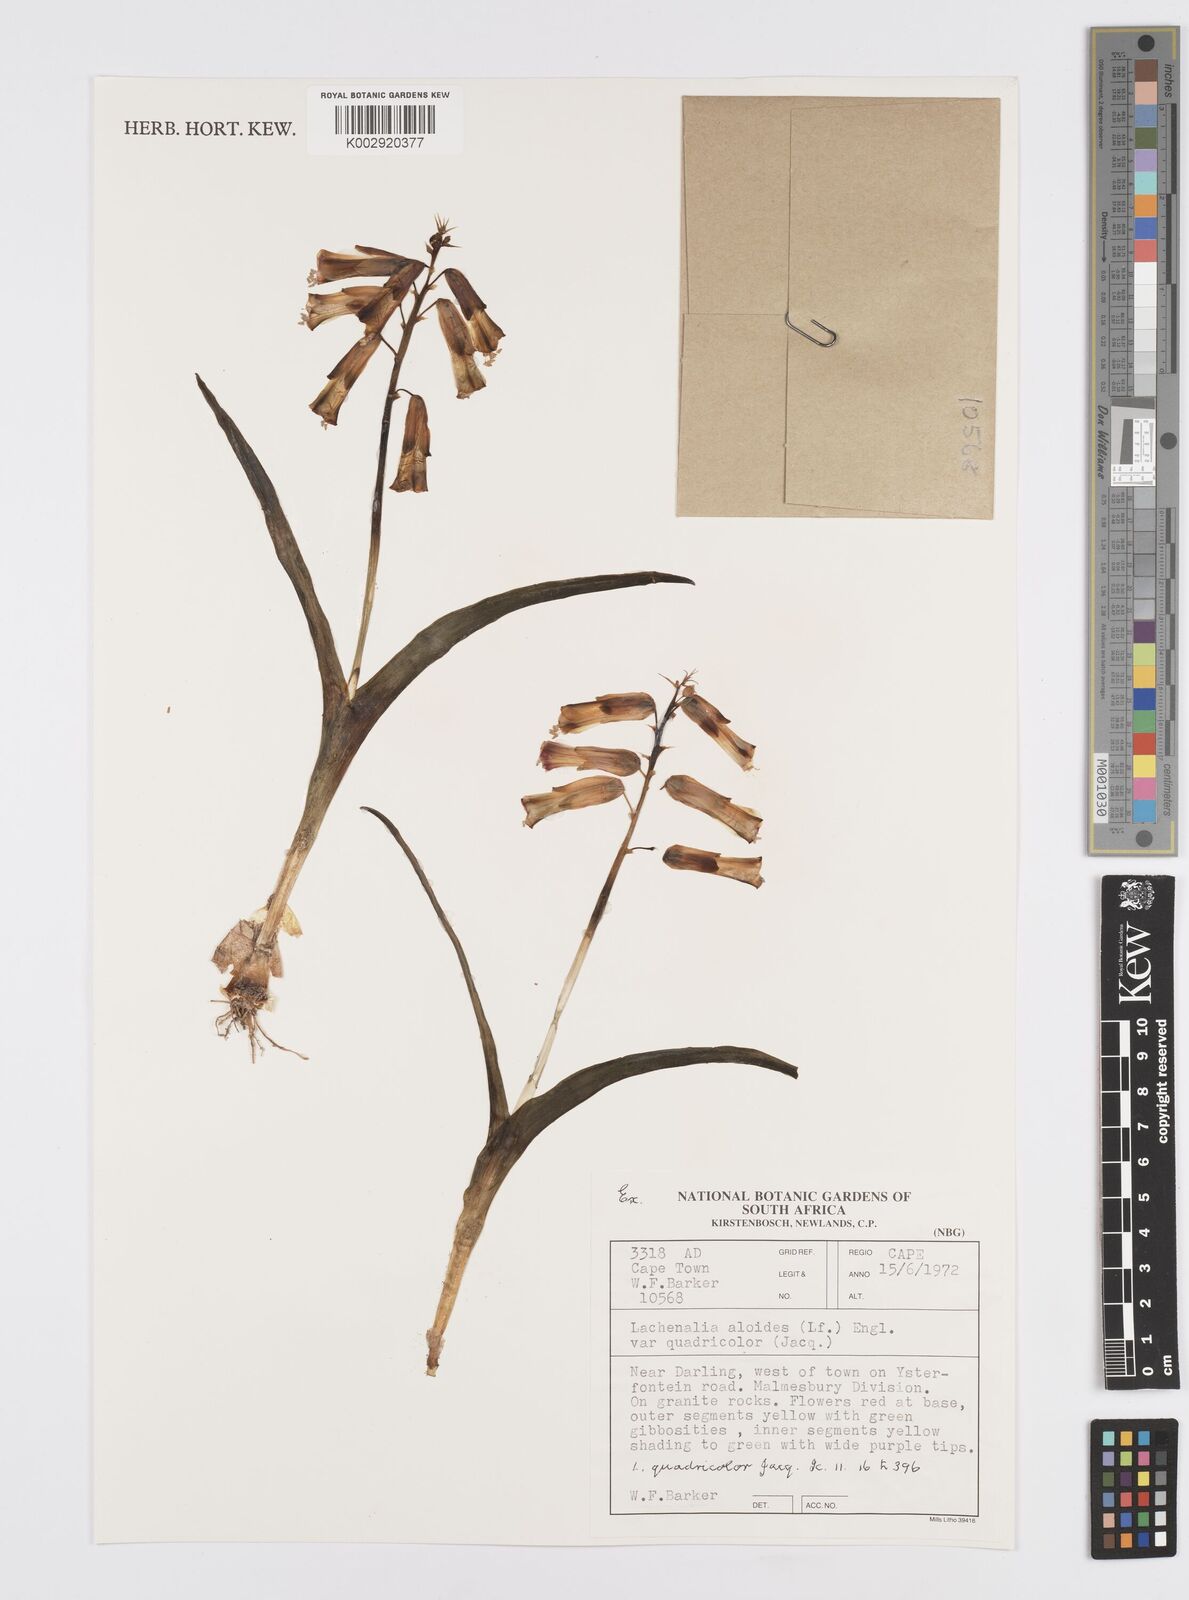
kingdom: Plantae
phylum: Tracheophyta
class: Liliopsida
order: Asparagales
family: Asparagaceae
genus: Lachenalia
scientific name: Lachenalia aloides
